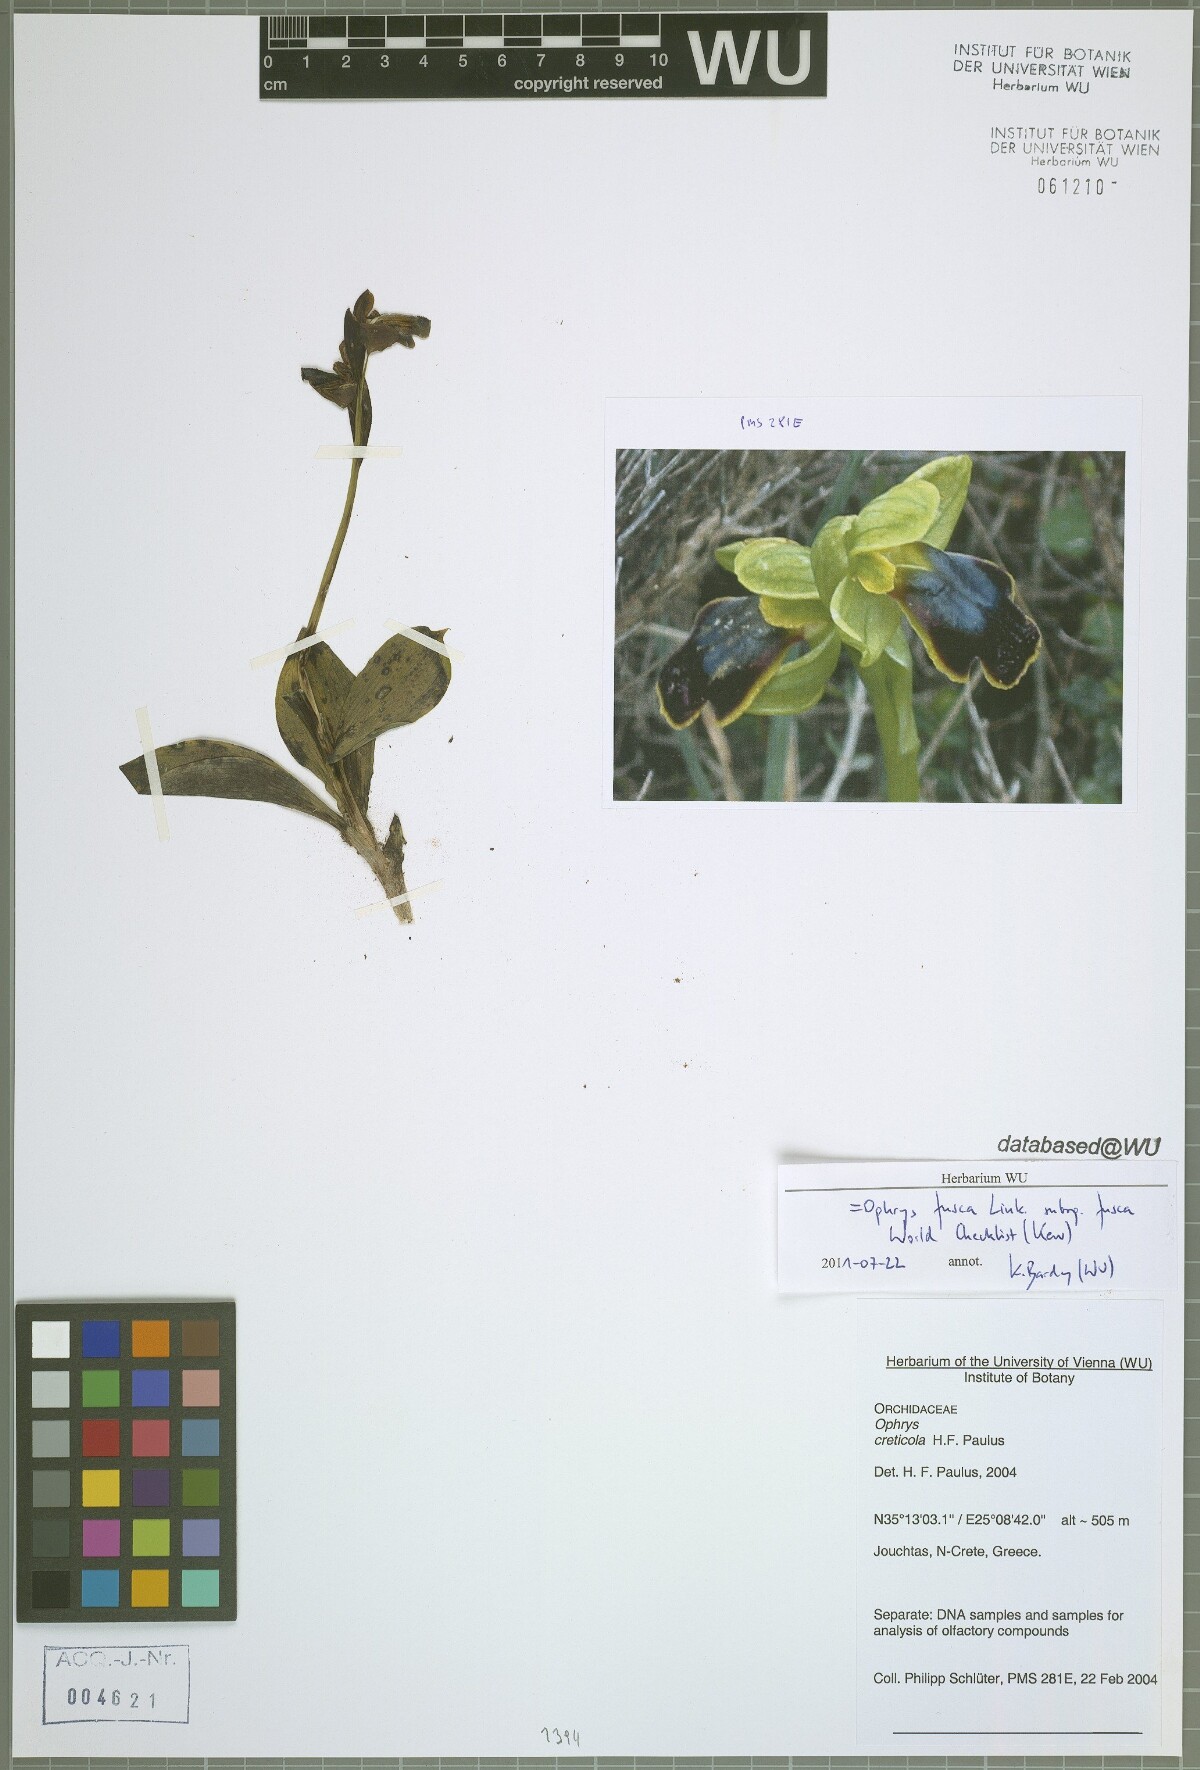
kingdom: Plantae
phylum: Tracheophyta
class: Liliopsida
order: Asparagales
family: Orchidaceae
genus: Ophrys
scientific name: Ophrys fusca
